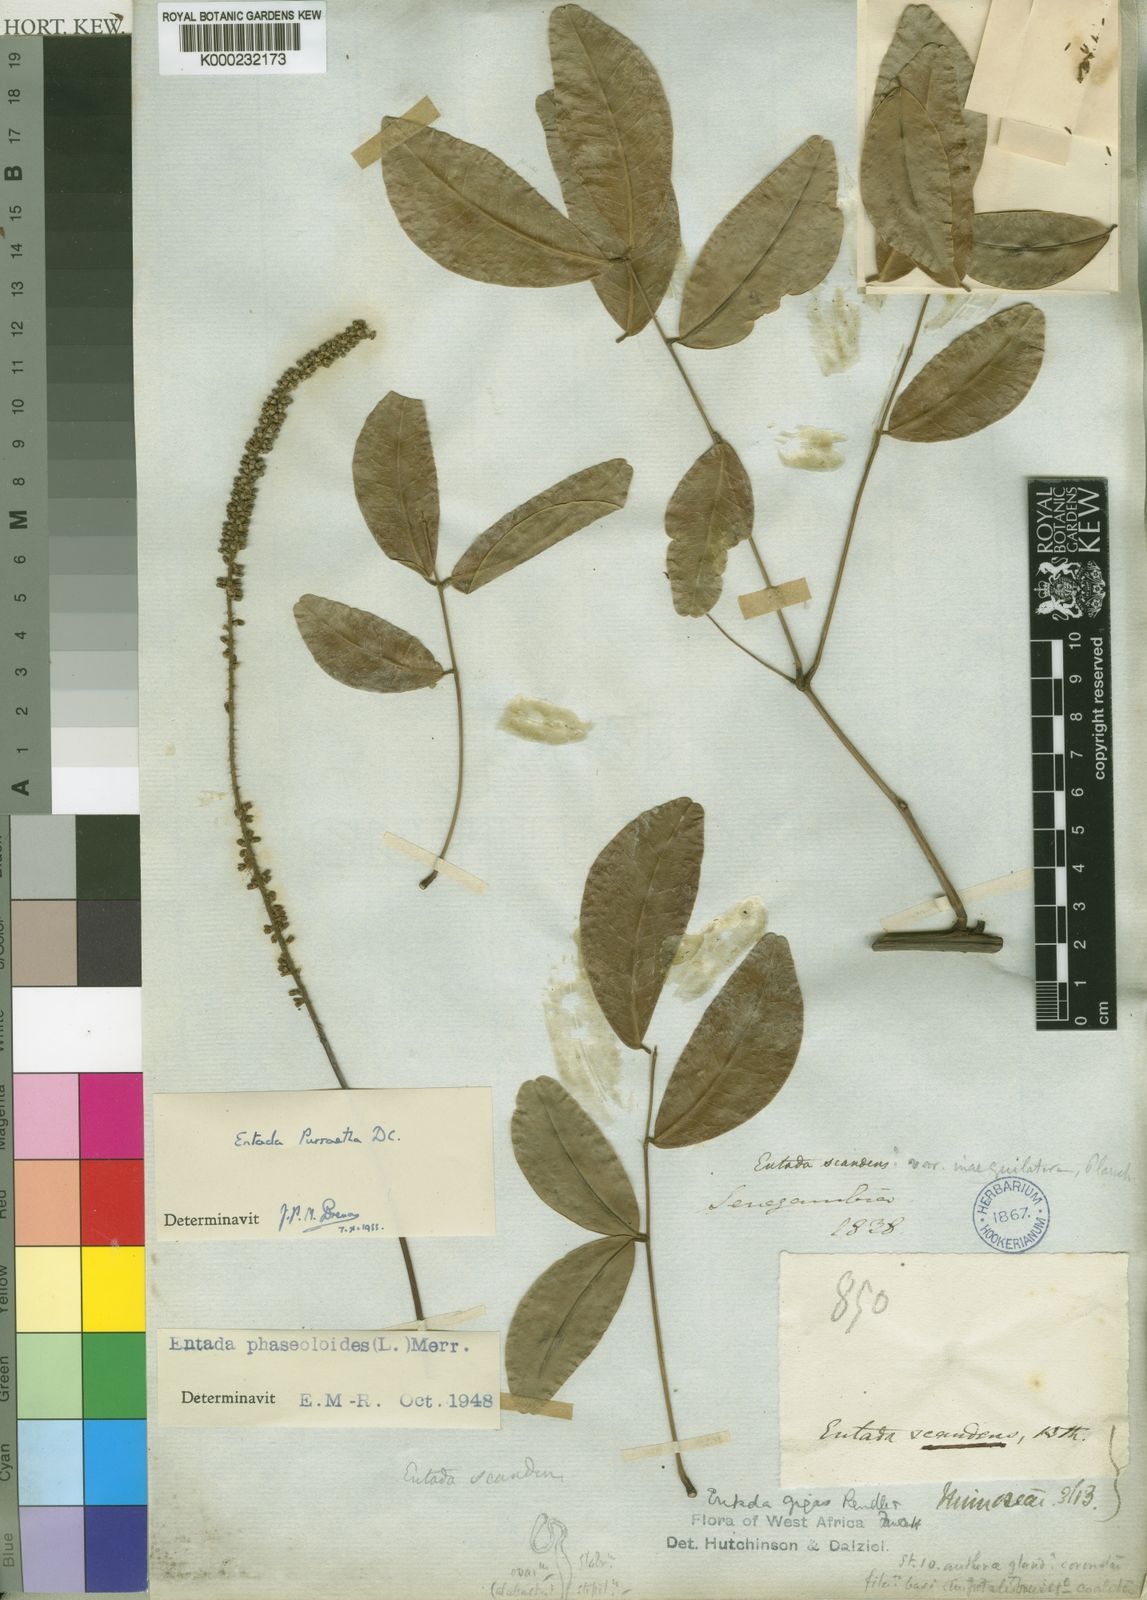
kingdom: Plantae
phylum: Tracheophyta
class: Magnoliopsida
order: Fabales
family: Fabaceae
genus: Entada
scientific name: Entada rheedei
